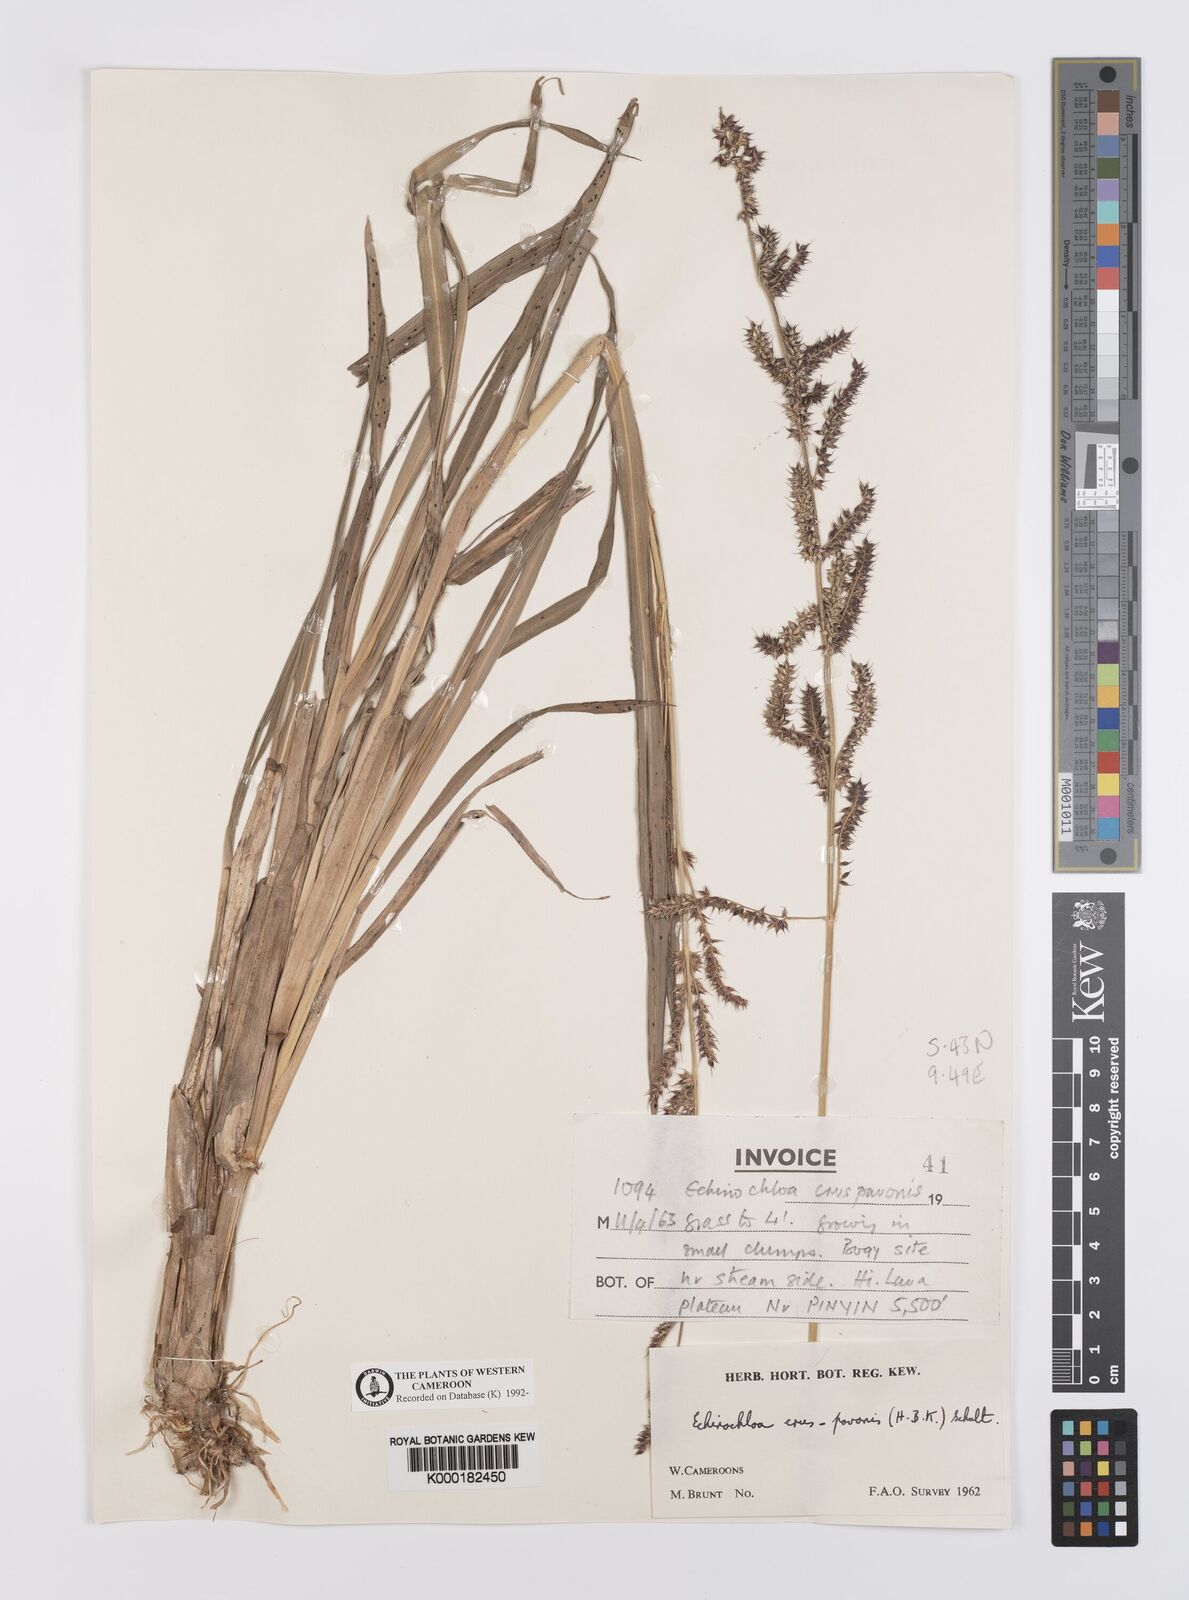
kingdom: Plantae
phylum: Tracheophyta
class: Liliopsida
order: Poales
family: Poaceae
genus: Echinochloa
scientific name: Echinochloa crus-pavonis
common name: Gulf cockspur grass
